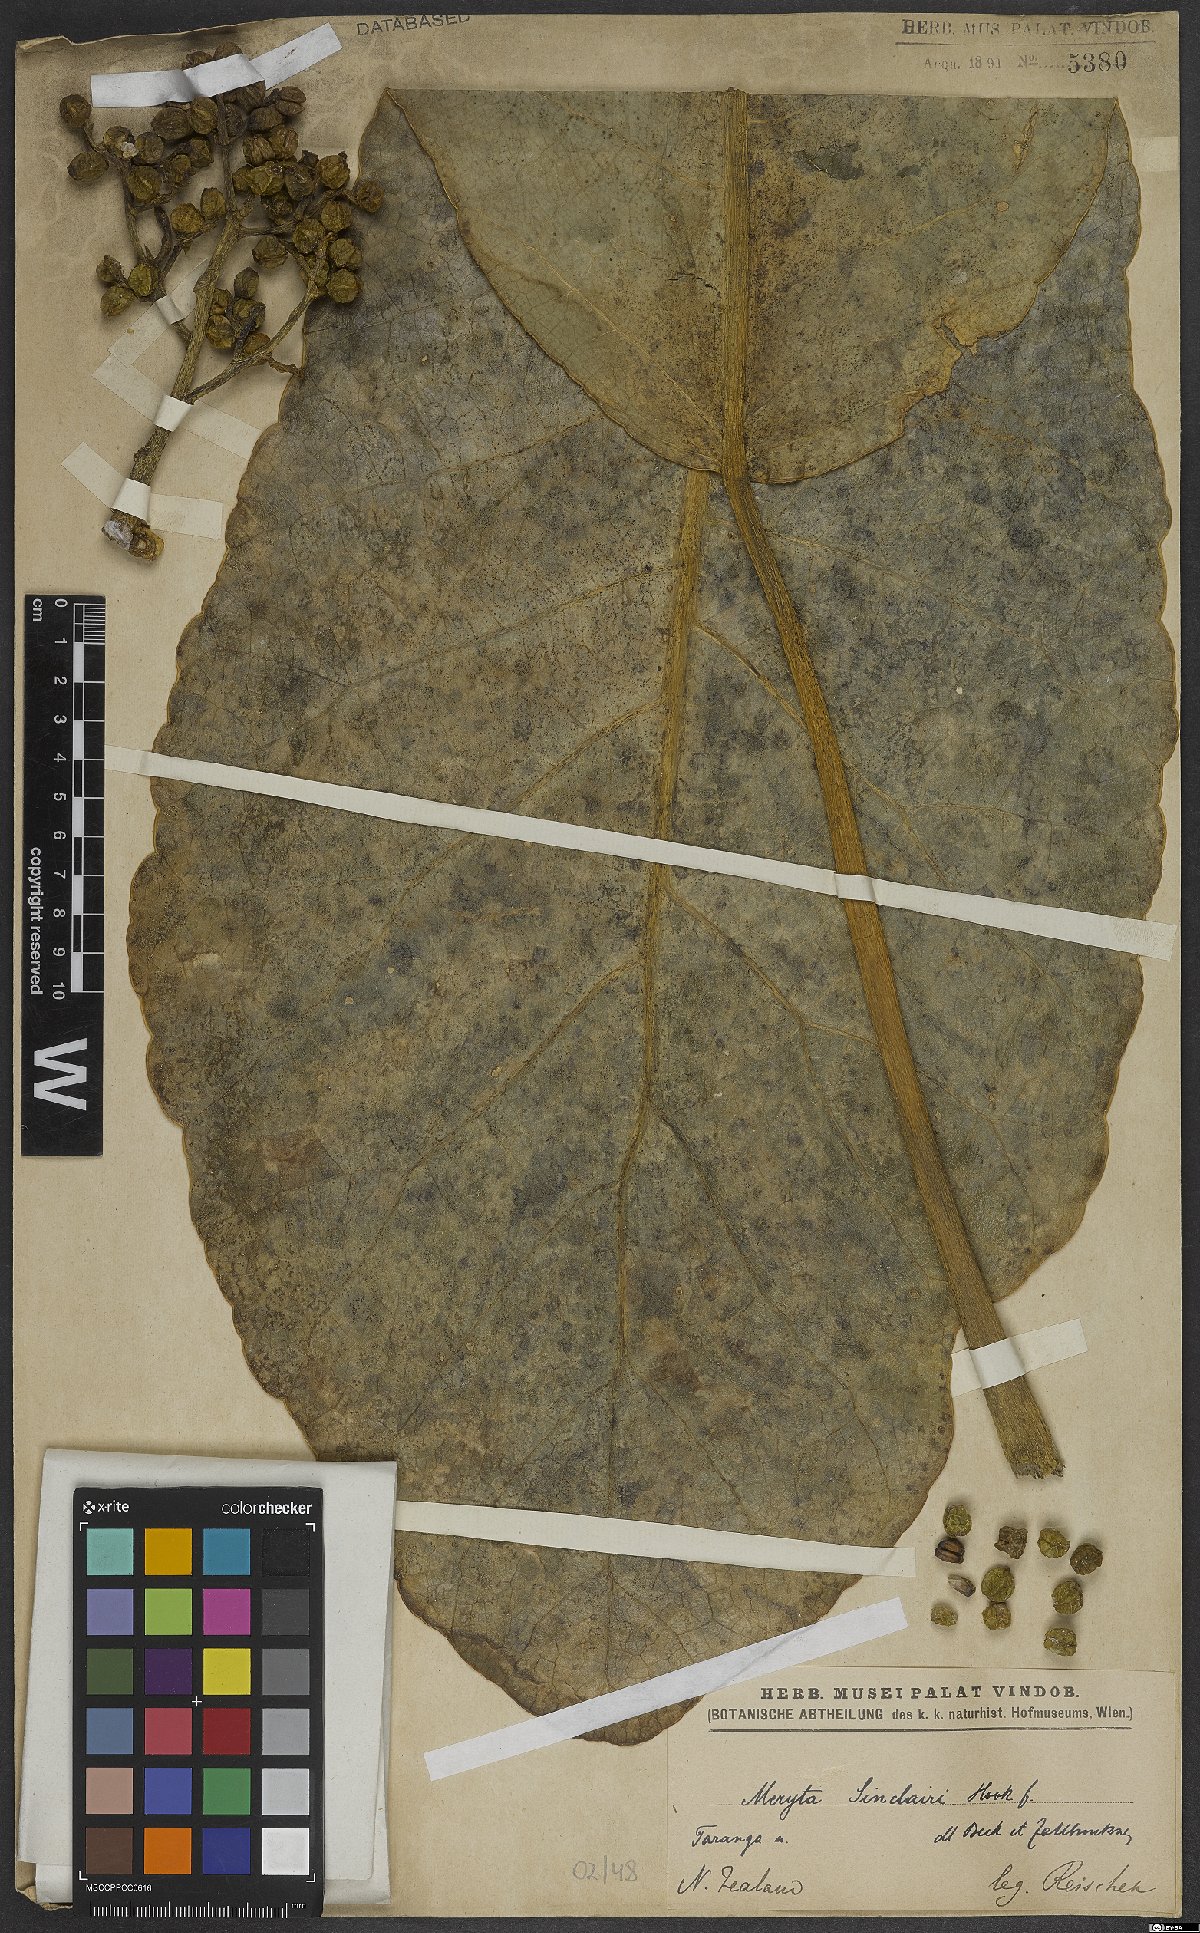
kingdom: Plantae
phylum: Tracheophyta
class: Magnoliopsida
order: Apiales
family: Araliaceae
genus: Meryta
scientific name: Meryta sinclairii
